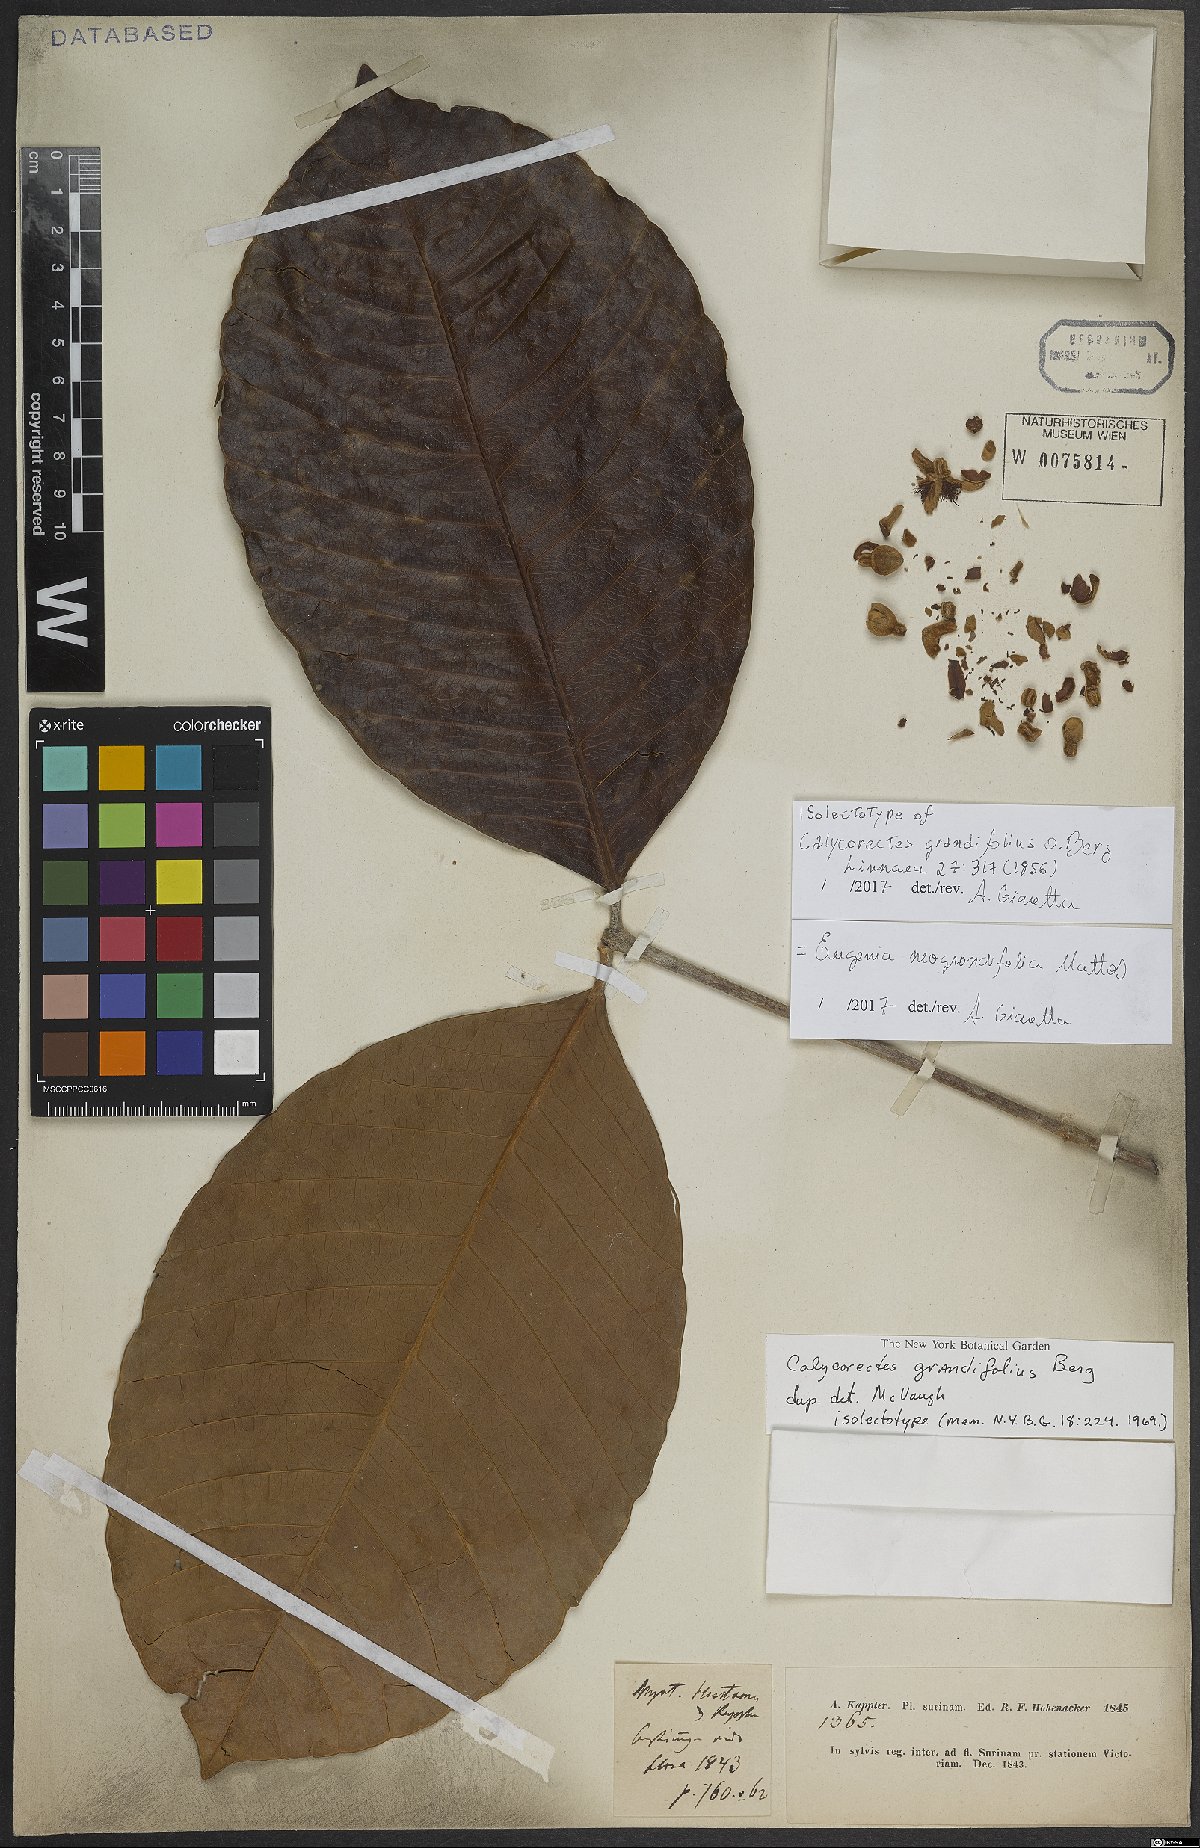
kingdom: Plantae
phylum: Tracheophyta
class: Magnoliopsida
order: Myrtales
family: Myrtaceae
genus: Calycorectes
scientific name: Calycorectes grandifolius
